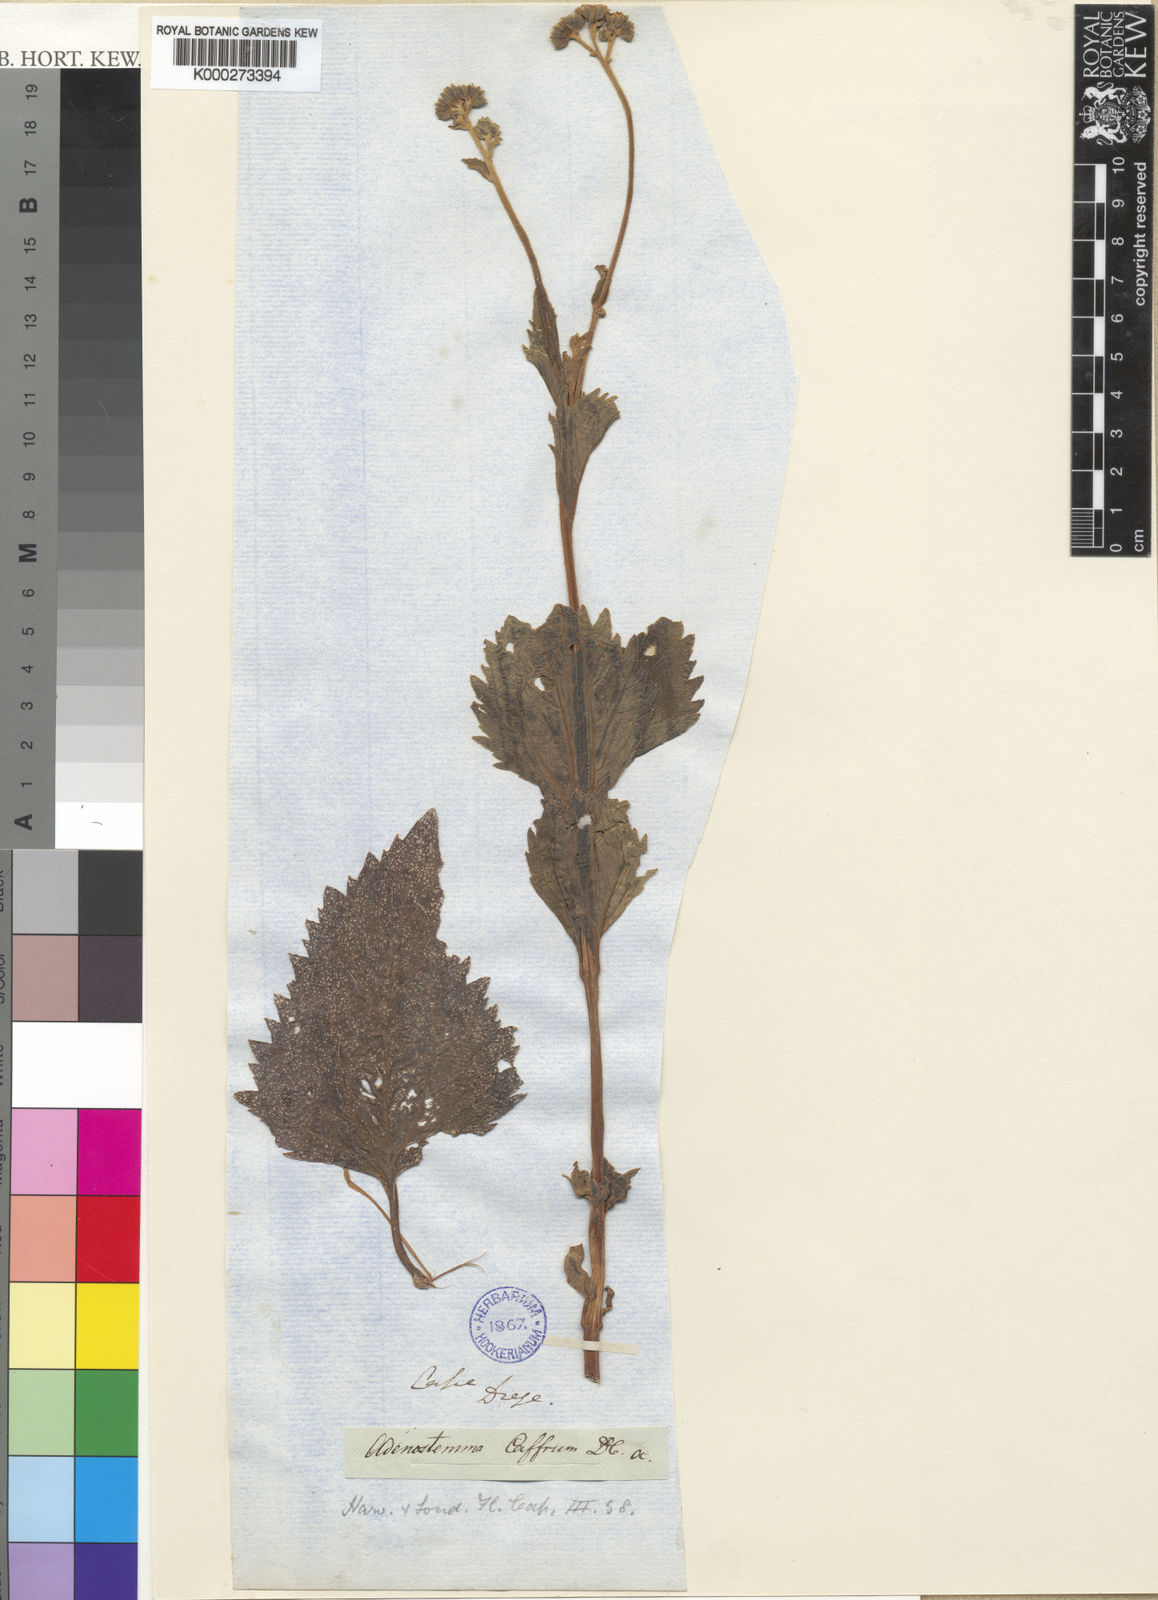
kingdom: Plantae
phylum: Tracheophyta
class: Magnoliopsida
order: Asterales
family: Asteraceae
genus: Adenostemma
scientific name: Adenostemma
